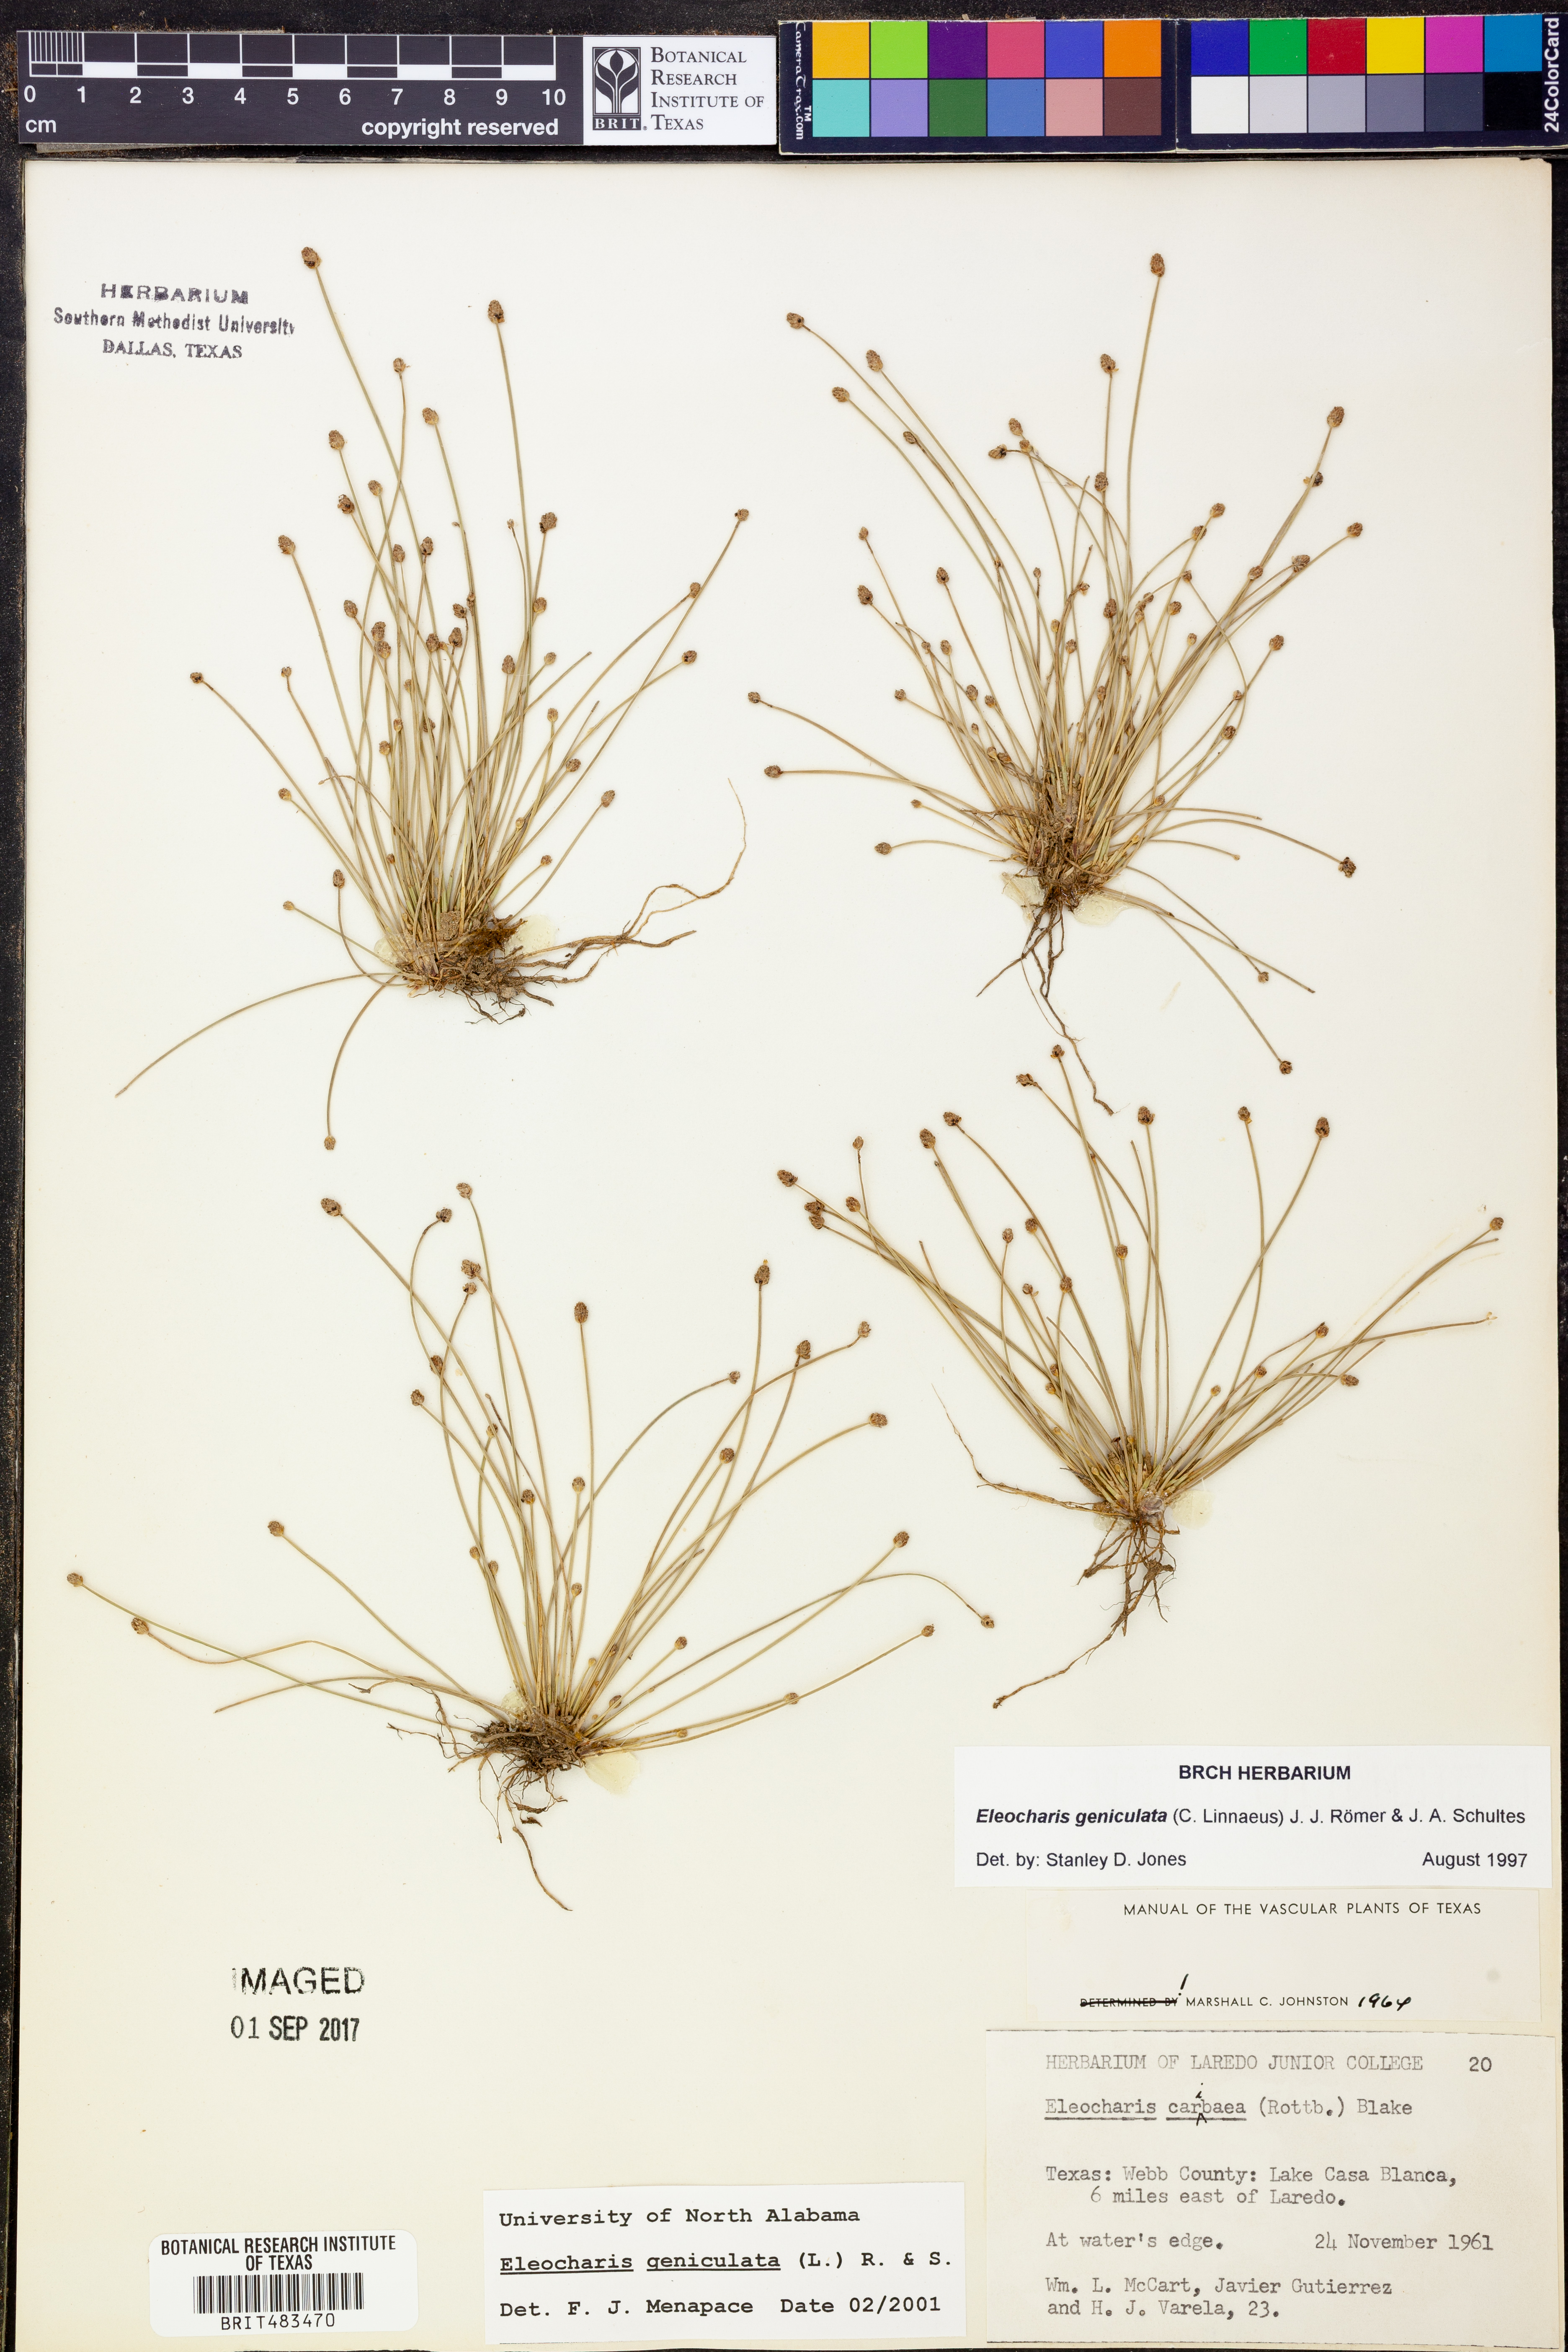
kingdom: Plantae
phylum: Tracheophyta
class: Liliopsida
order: Poales
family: Cyperaceae
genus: Eleocharis
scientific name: Eleocharis geniculata
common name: Canada spikesedge
